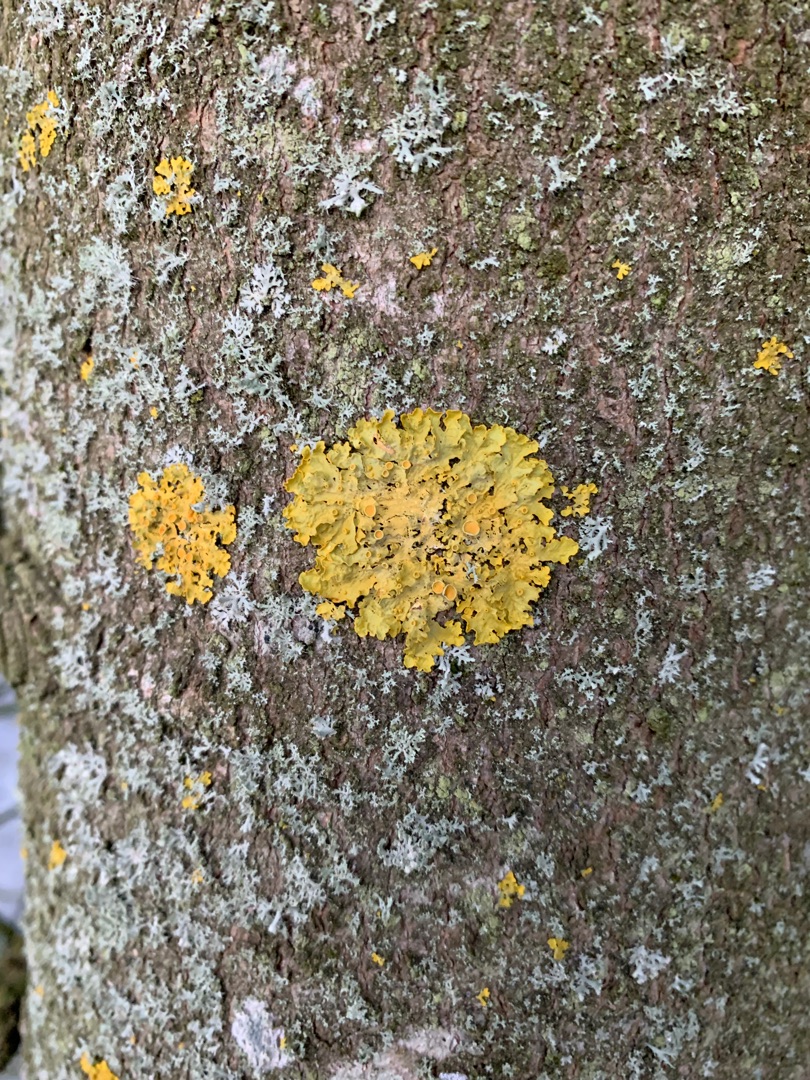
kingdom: Fungi
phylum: Ascomycota
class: Lecanoromycetes
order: Teloschistales
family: Teloschistaceae
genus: Xanthoria
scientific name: Xanthoria parietina
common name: Almindelig væggelav
